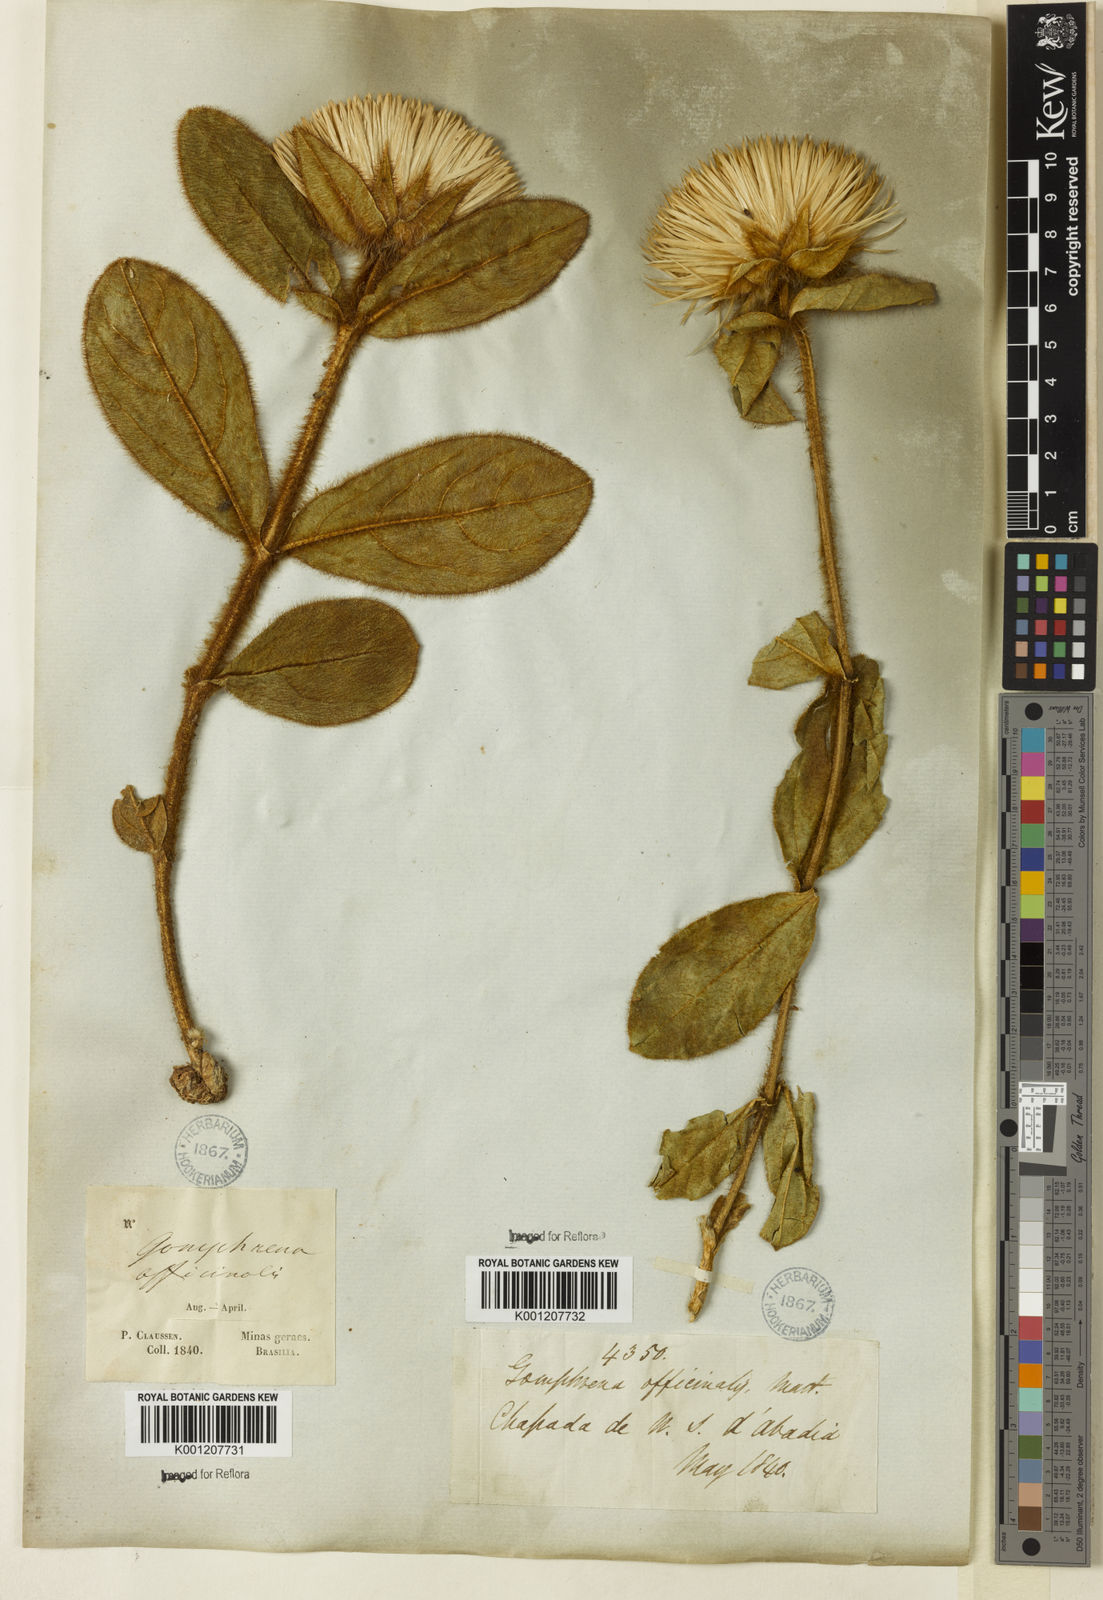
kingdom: Plantae
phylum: Tracheophyta
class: Magnoliopsida
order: Caryophyllales
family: Amaranthaceae
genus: Gomphrena
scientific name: Gomphrena arborescens
